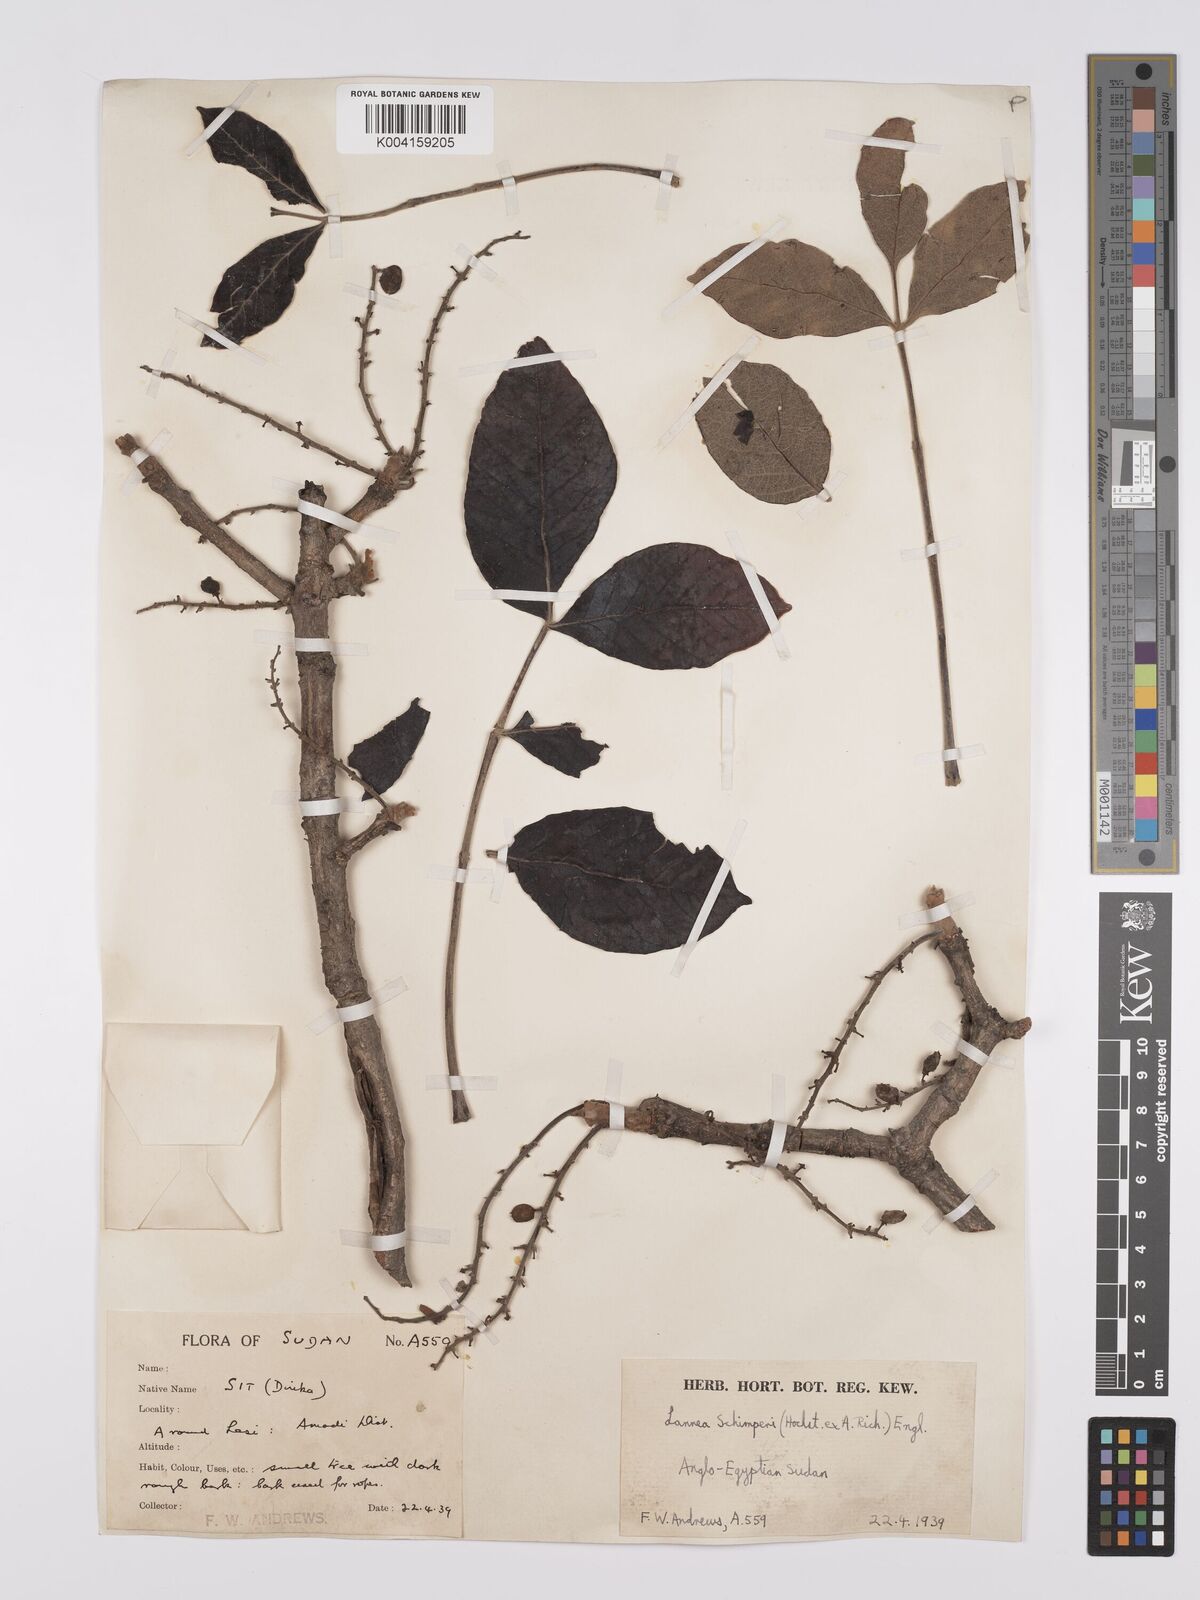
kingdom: Plantae
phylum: Tracheophyta
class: Magnoliopsida
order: Sapindales
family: Anacardiaceae
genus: Lannea
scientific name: Lannea schimperi
